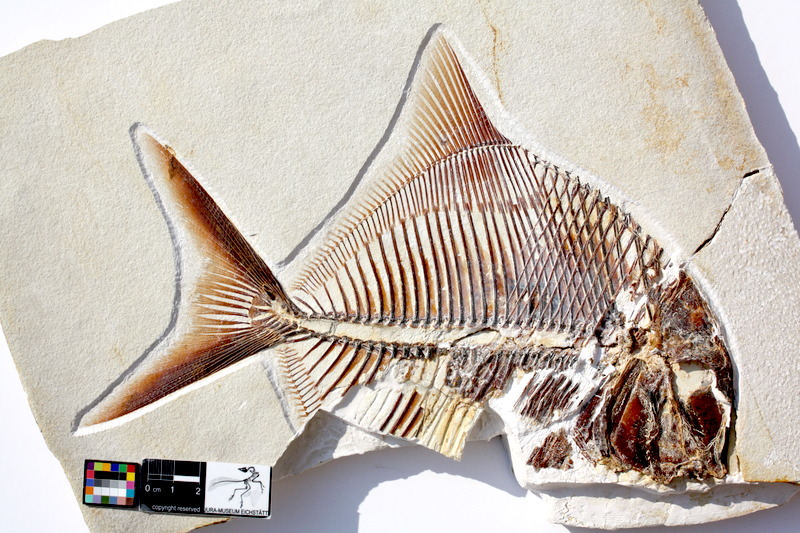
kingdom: Animalia
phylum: Chordata
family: Pycnodontidae
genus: Proscinetes
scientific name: Proscinetes elegans
